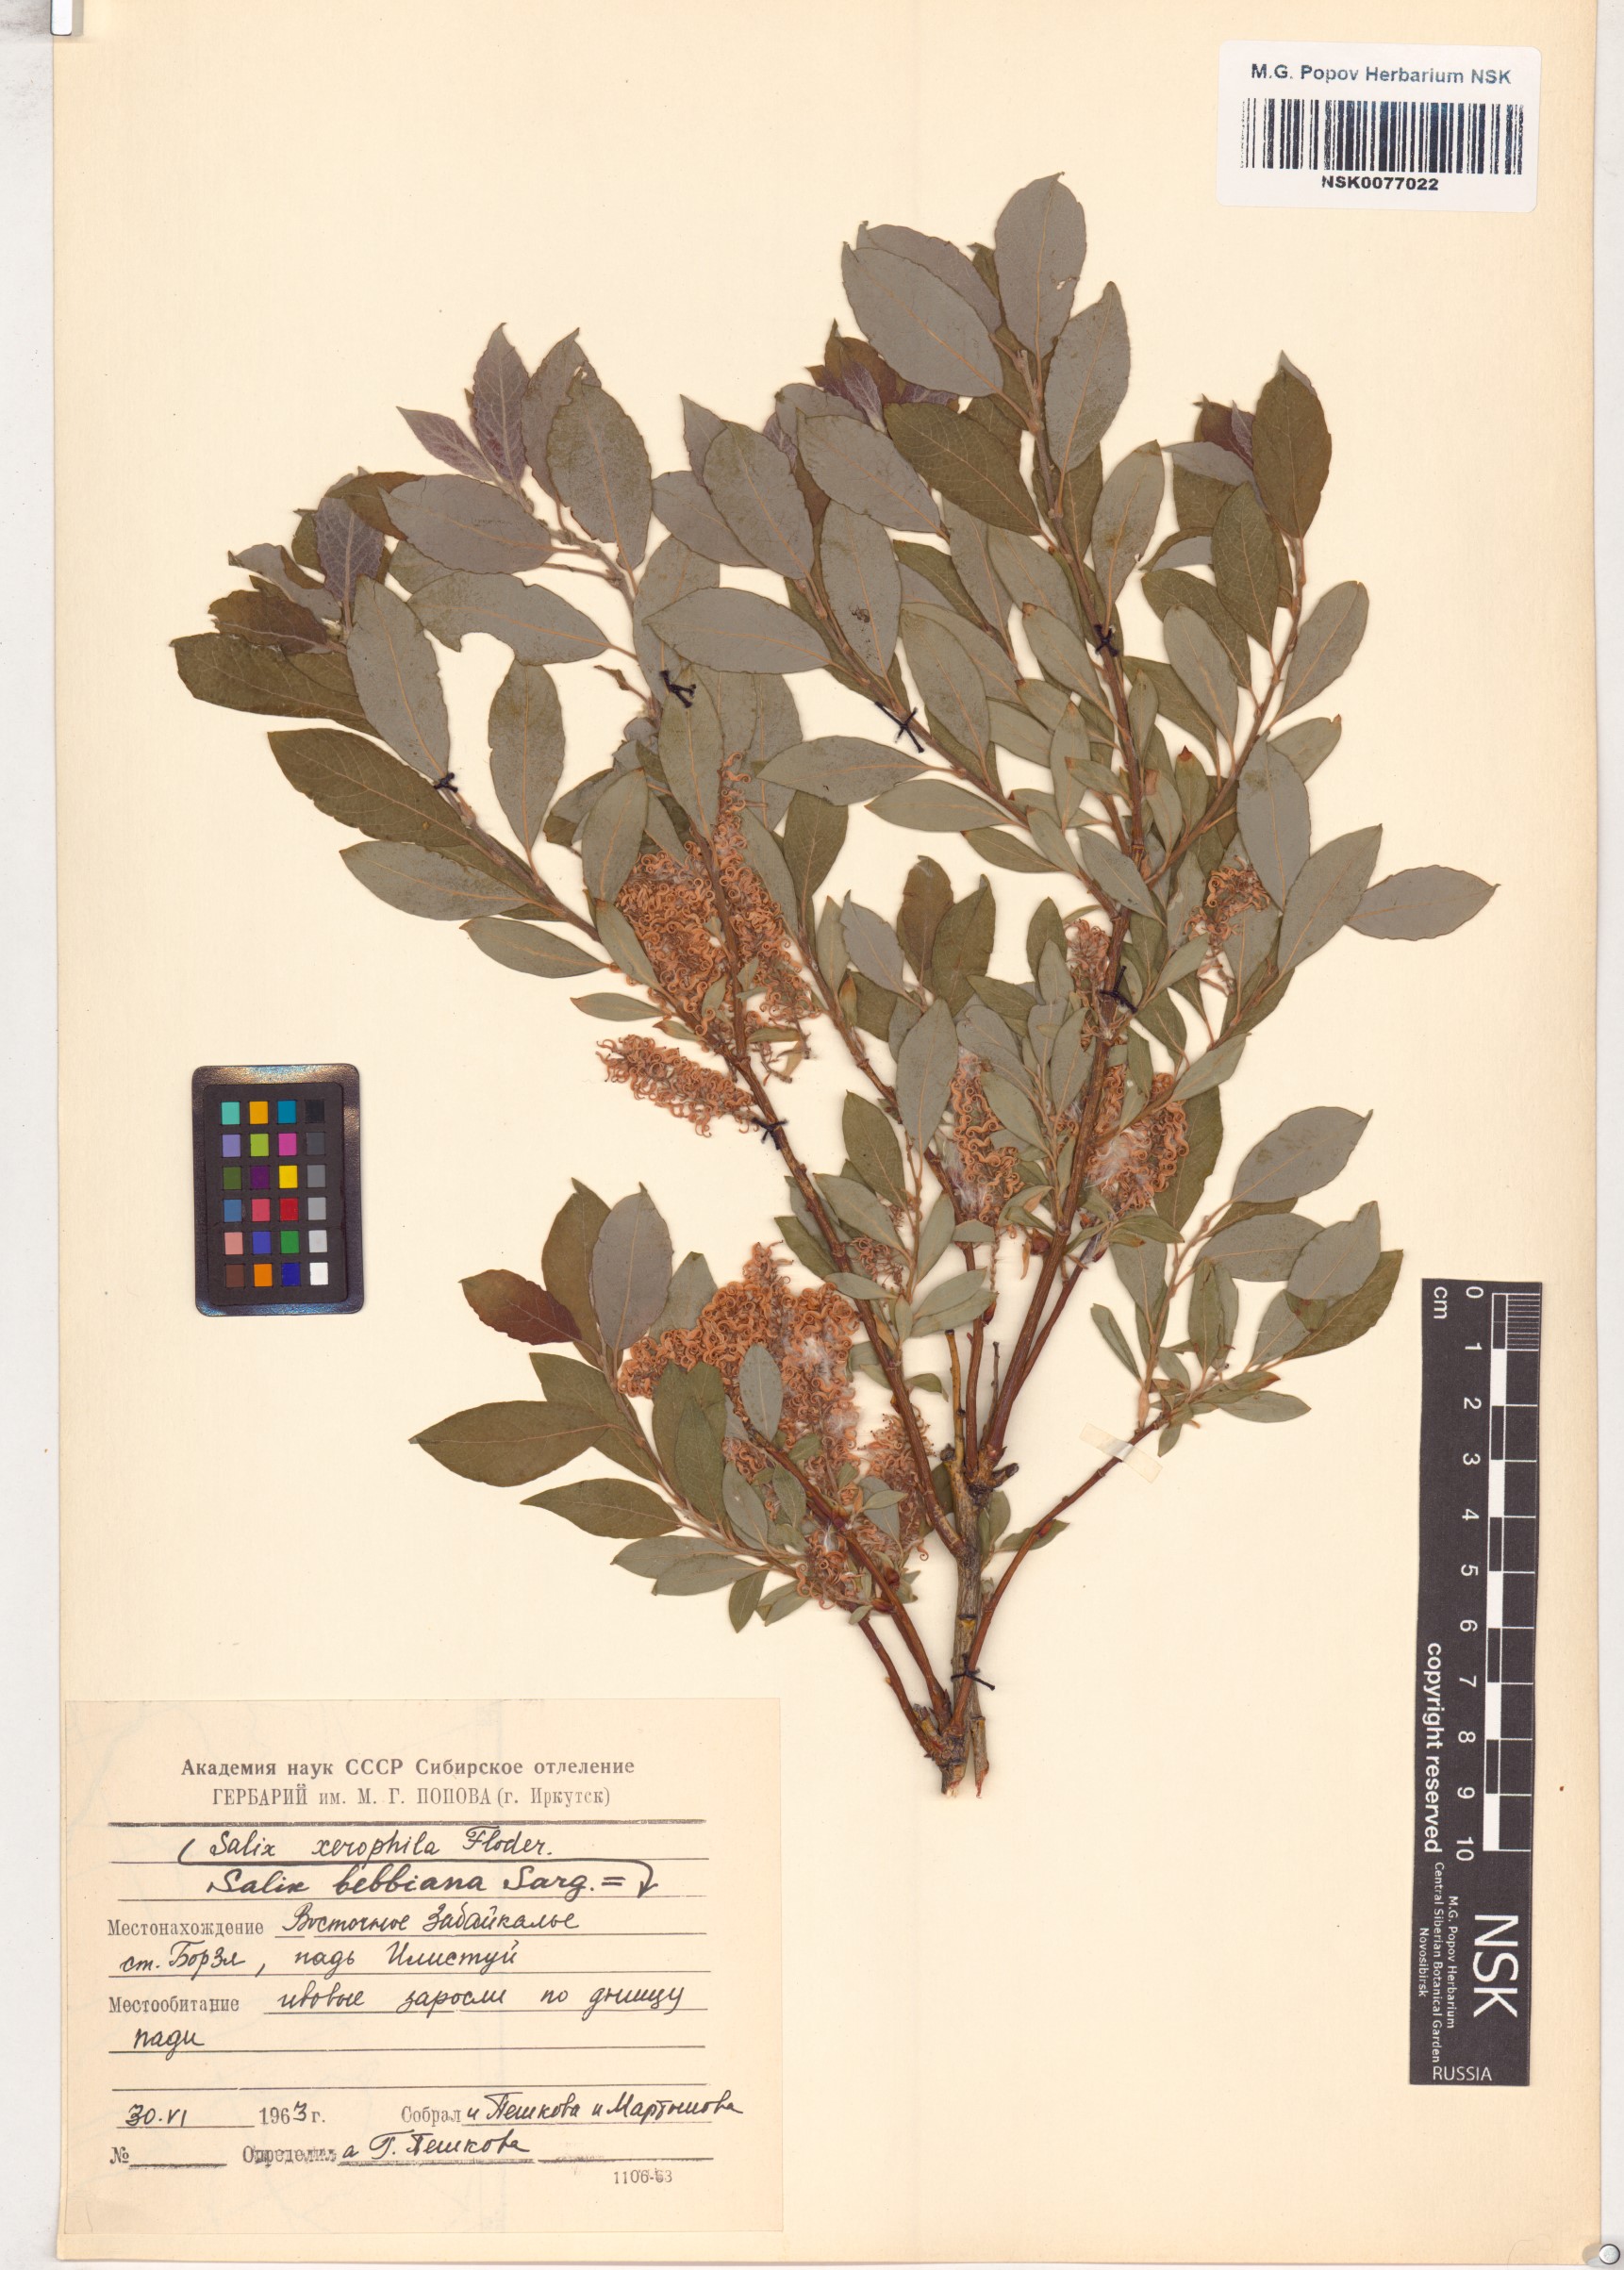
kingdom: Plantae
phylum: Tracheophyta
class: Magnoliopsida
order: Malpighiales
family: Salicaceae
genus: Salix
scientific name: Salix bebbiana
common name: Bebb's willow
